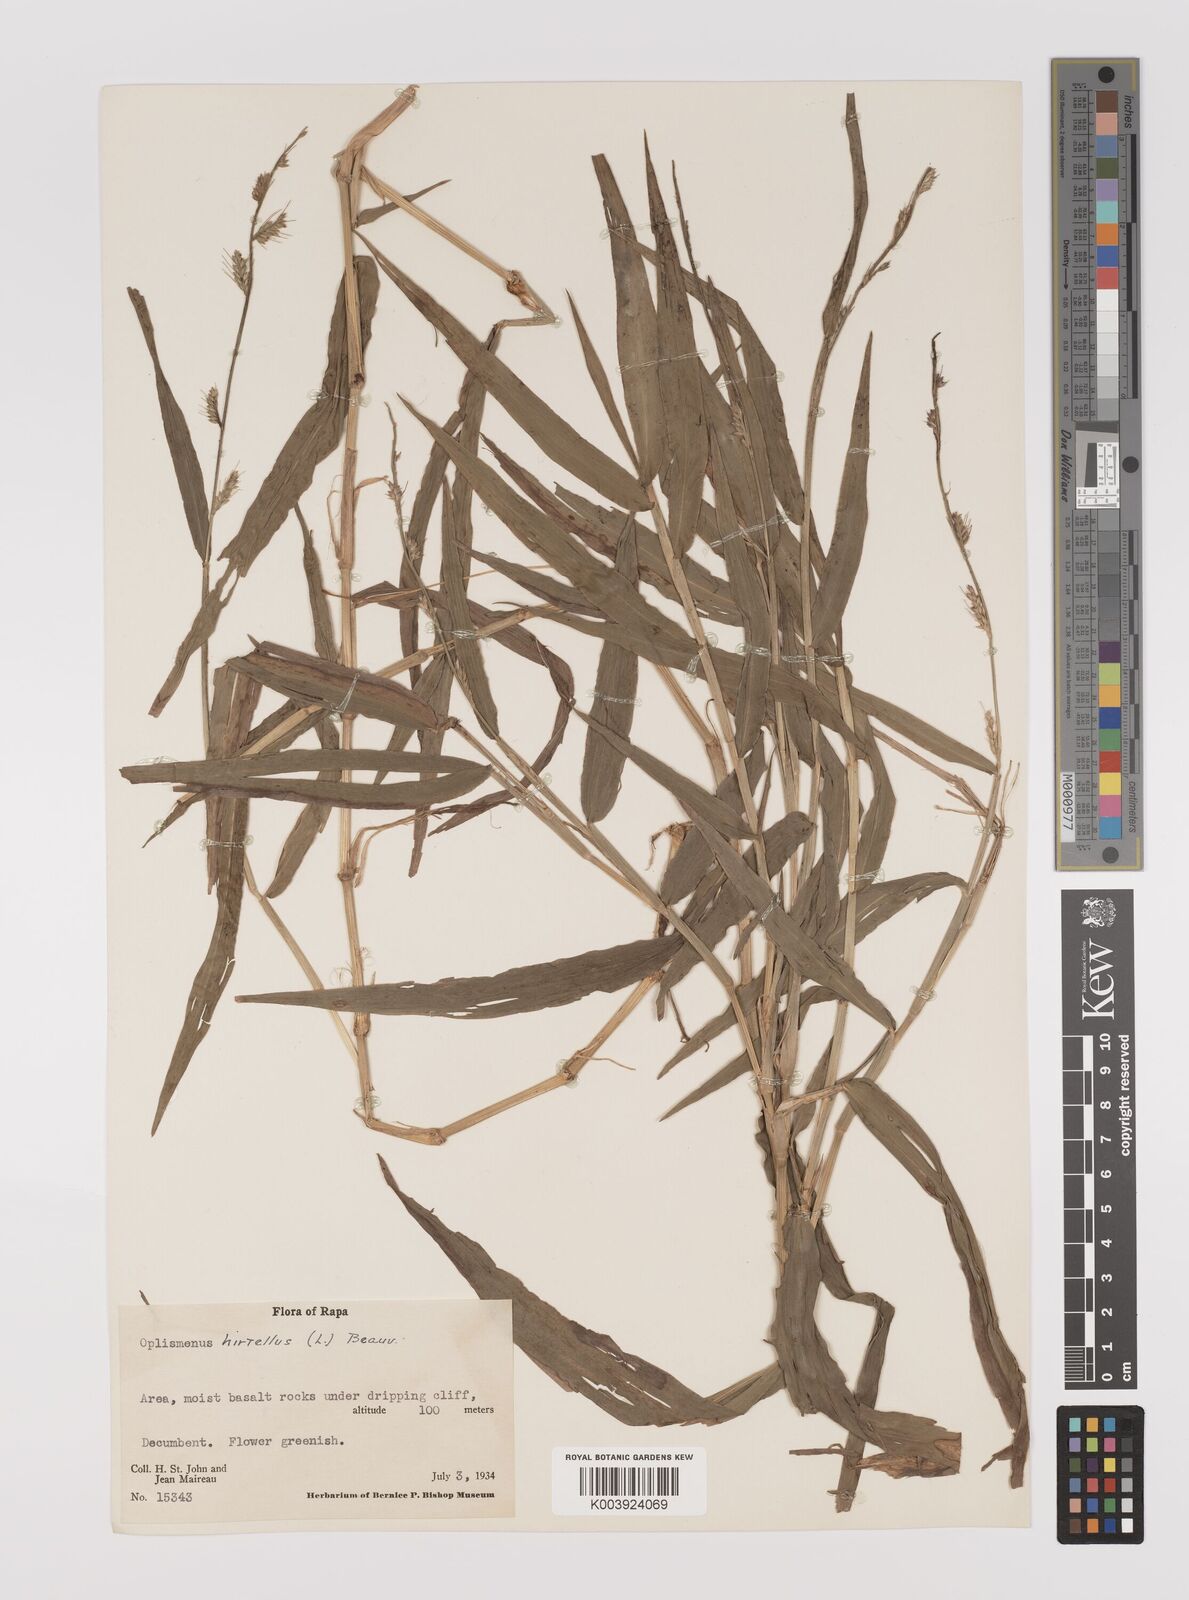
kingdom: Plantae
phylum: Tracheophyta
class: Liliopsida
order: Poales
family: Poaceae
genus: Oplismenus
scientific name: Oplismenus hirtellus
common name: Basketgrass
